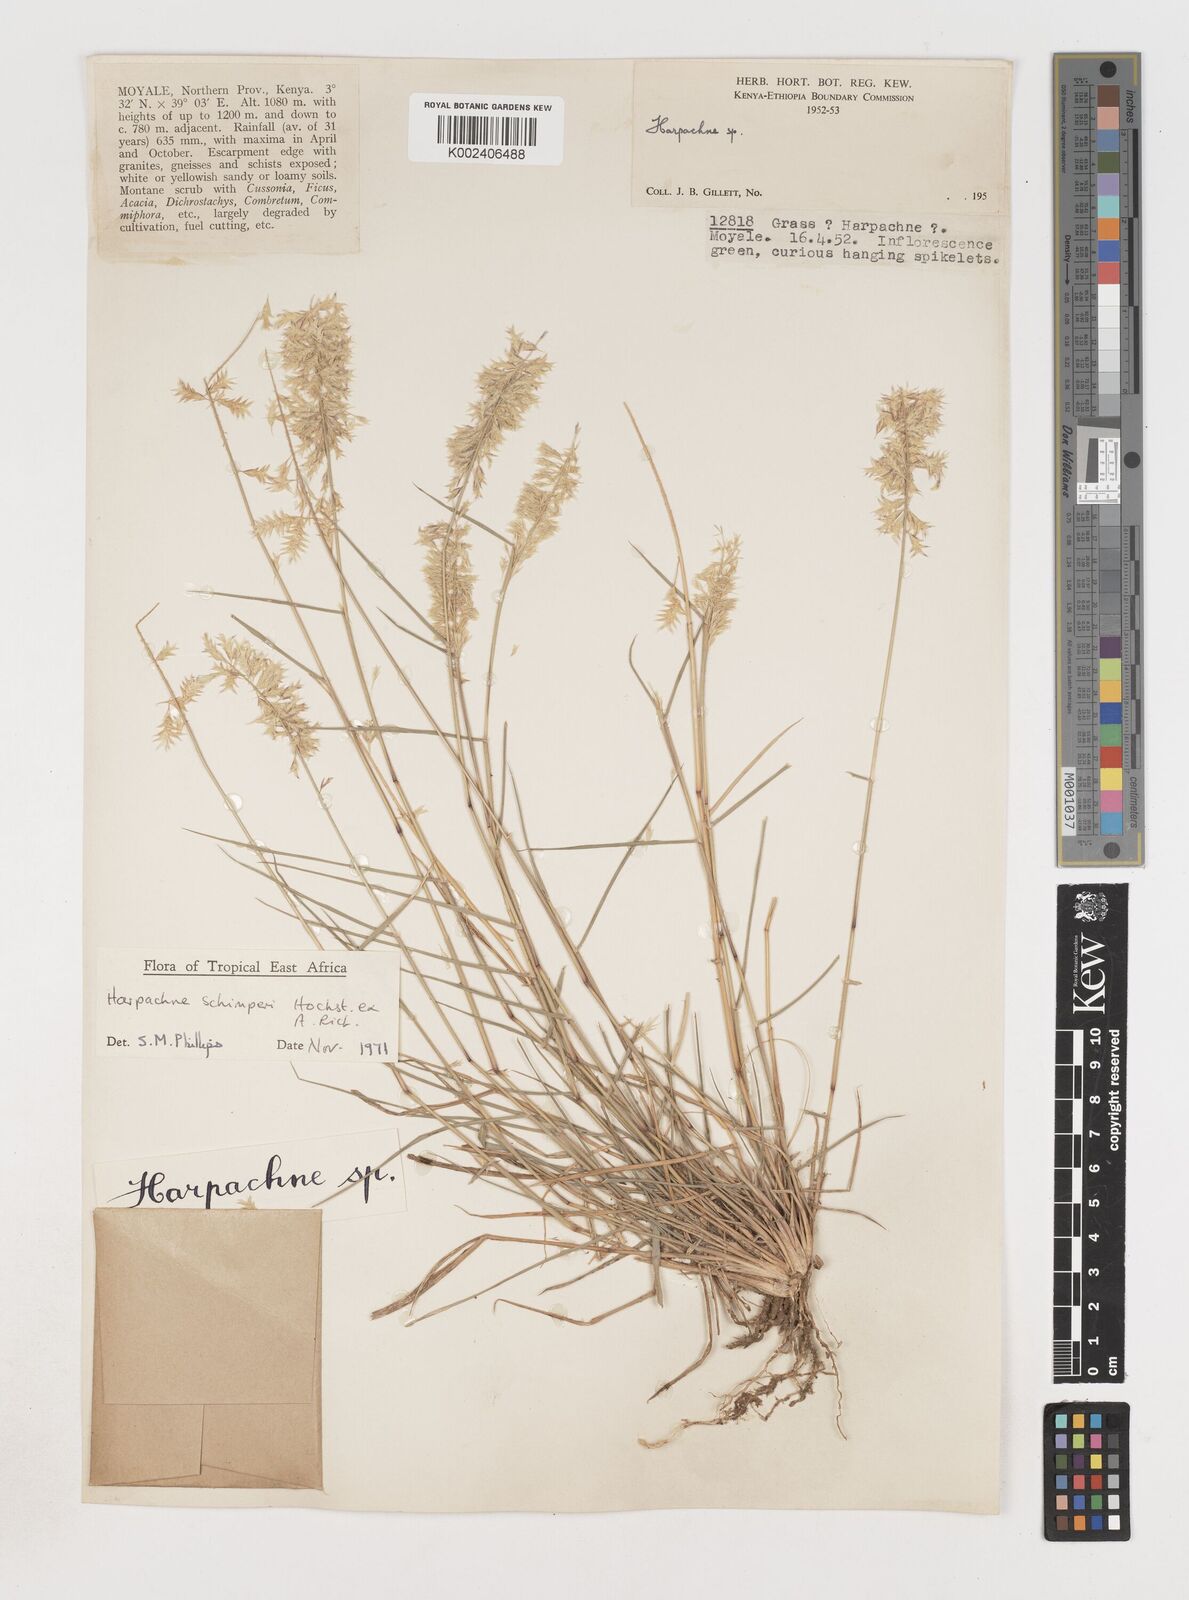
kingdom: Plantae
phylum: Tracheophyta
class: Liliopsida
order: Poales
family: Poaceae
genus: Harpachne
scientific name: Harpachne schimperi
